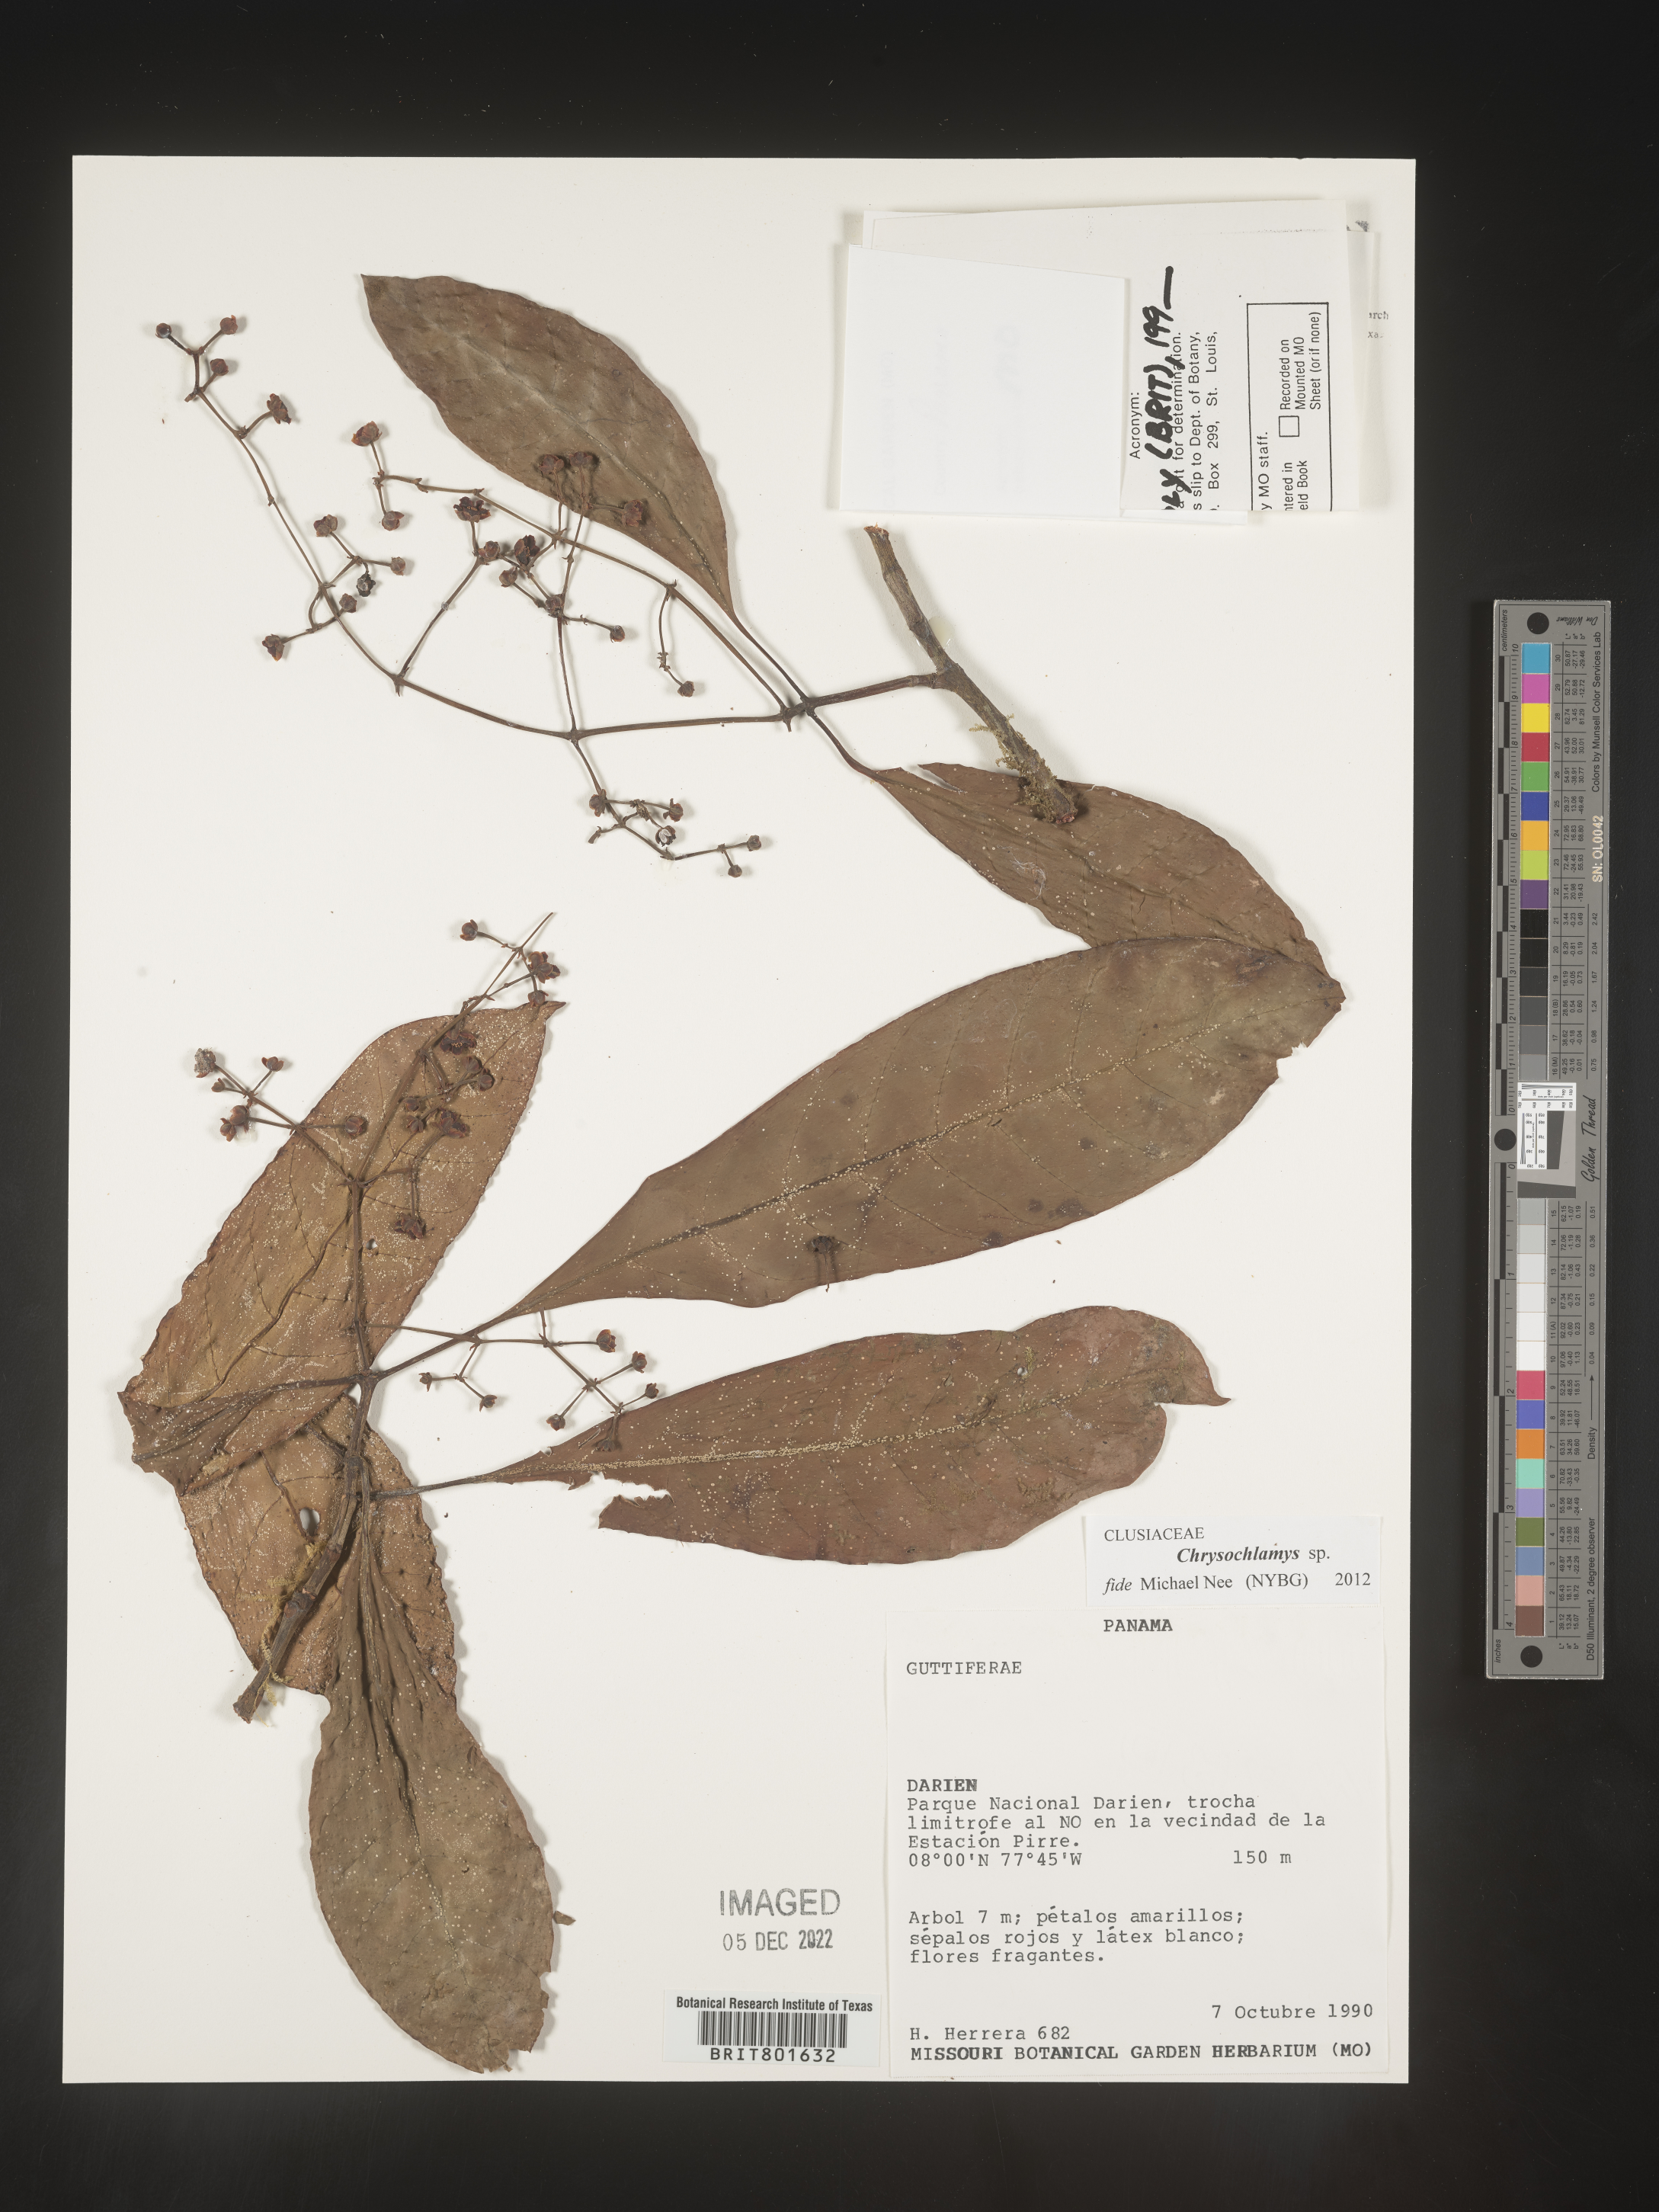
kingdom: Plantae
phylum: Tracheophyta
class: Magnoliopsida
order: Malpighiales
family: Clusiaceae
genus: Chrysochlamys
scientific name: Chrysochlamys
